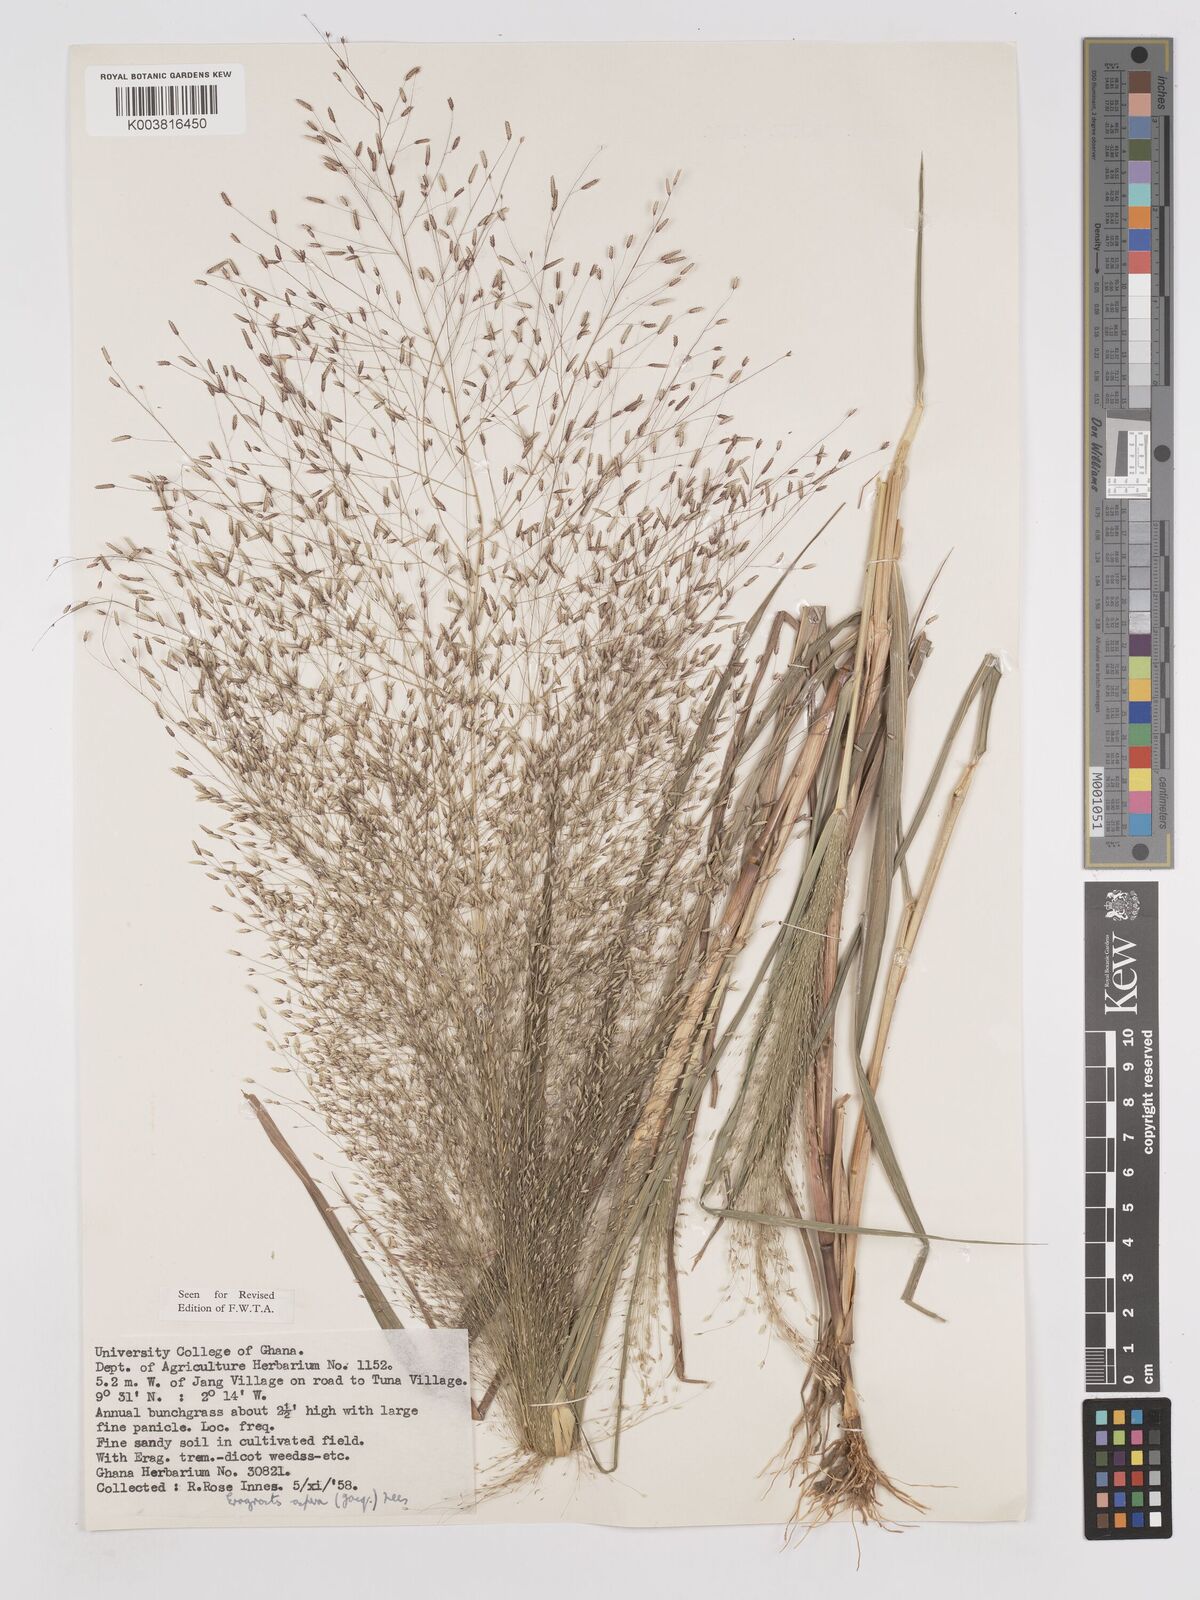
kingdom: Plantae
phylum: Tracheophyta
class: Liliopsida
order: Poales
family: Poaceae
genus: Eragrostis
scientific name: Eragrostis aspera
